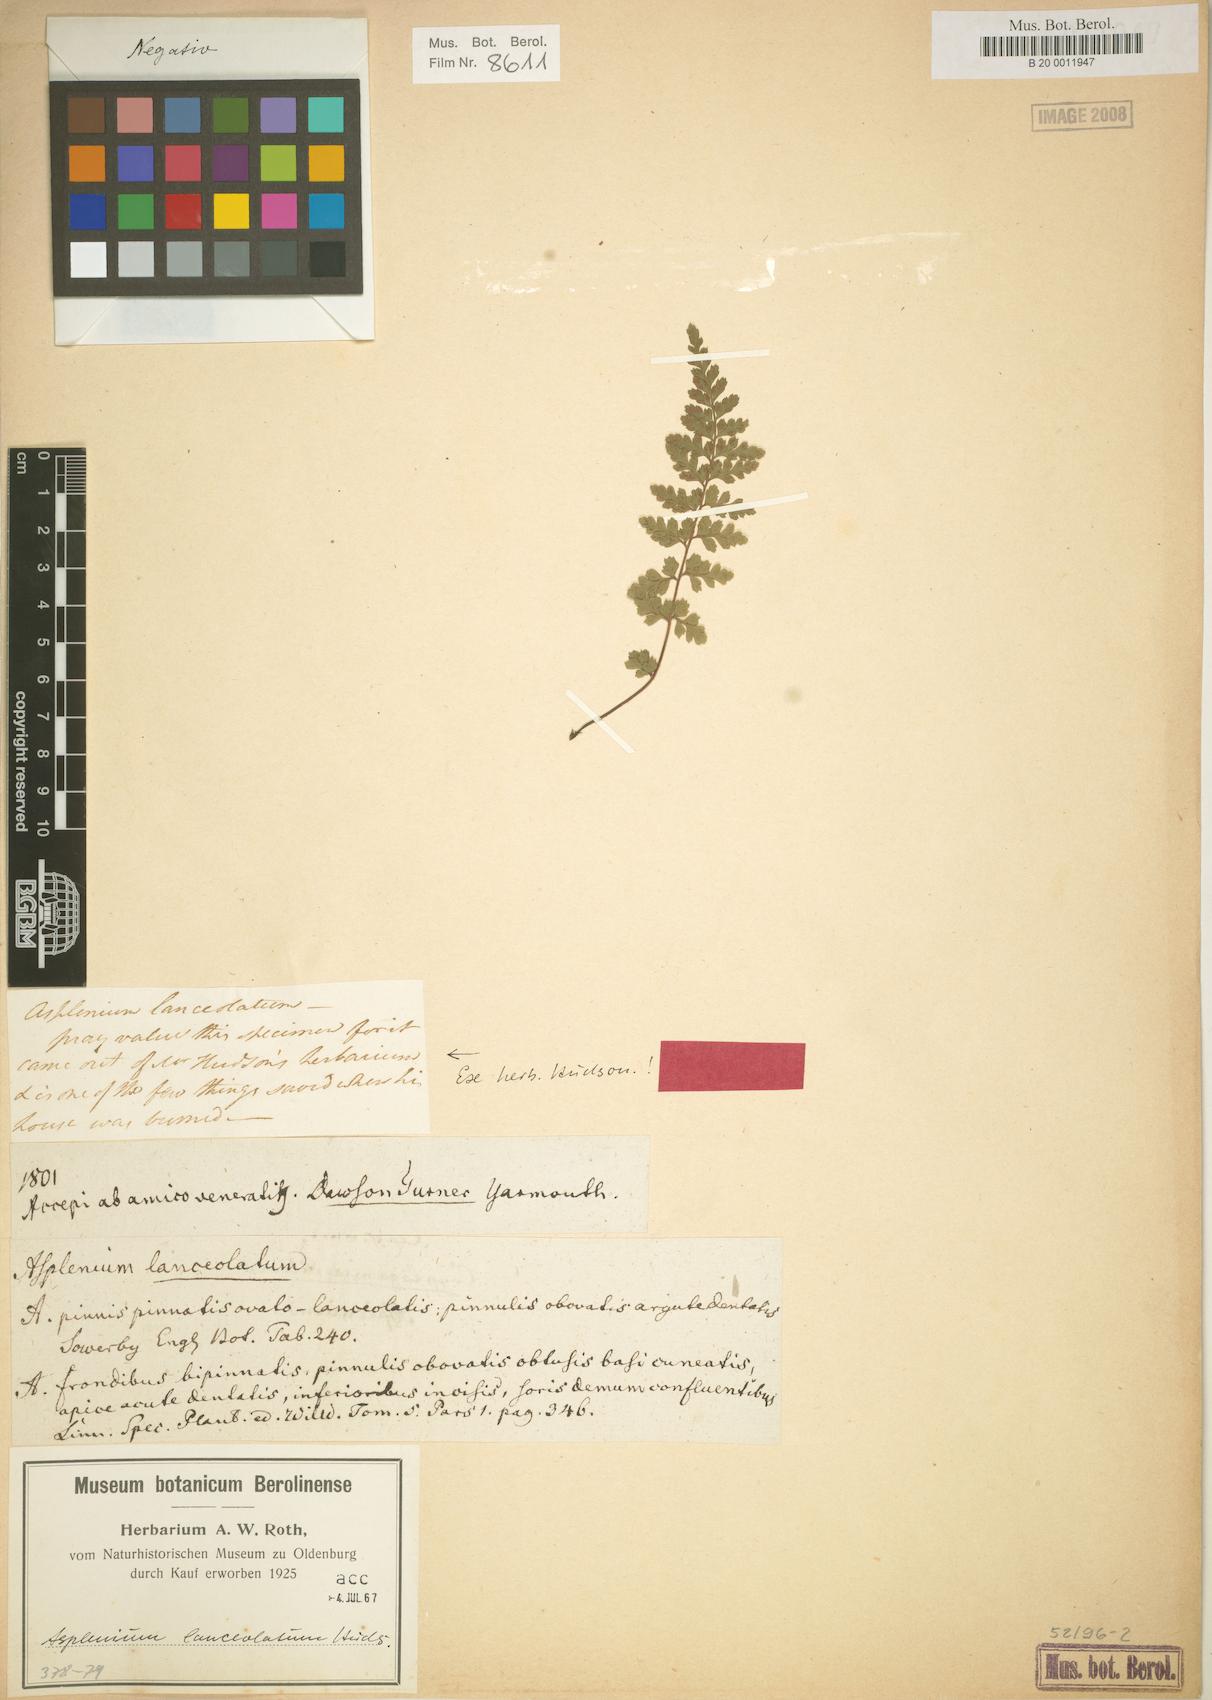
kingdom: Plantae
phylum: Tracheophyta
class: Polypodiopsida
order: Polypodiales
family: Aspleniaceae
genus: Asplenium
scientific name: Asplenium obovatum
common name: Lanceolate spleenwort
